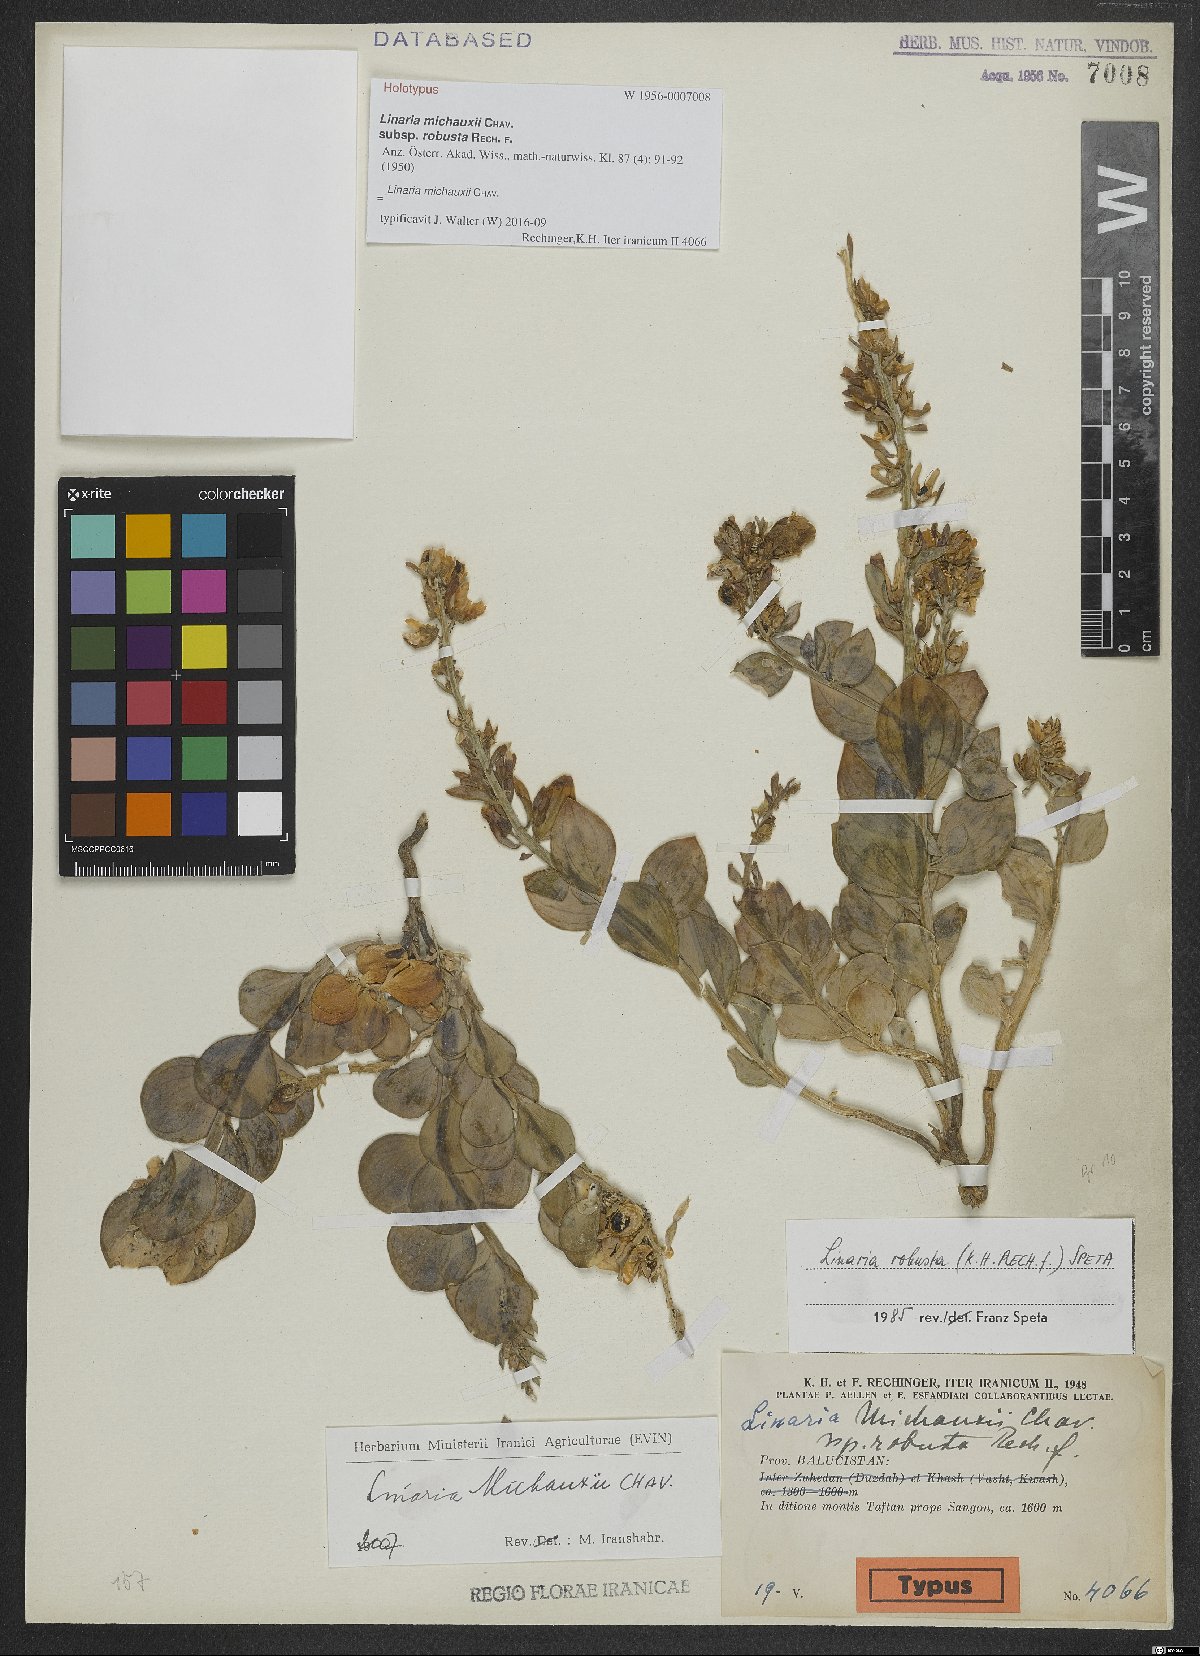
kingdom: Plantae
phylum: Tracheophyta
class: Magnoliopsida
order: Lamiales
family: Plantaginaceae
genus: Linaria
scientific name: Linaria michauxii
